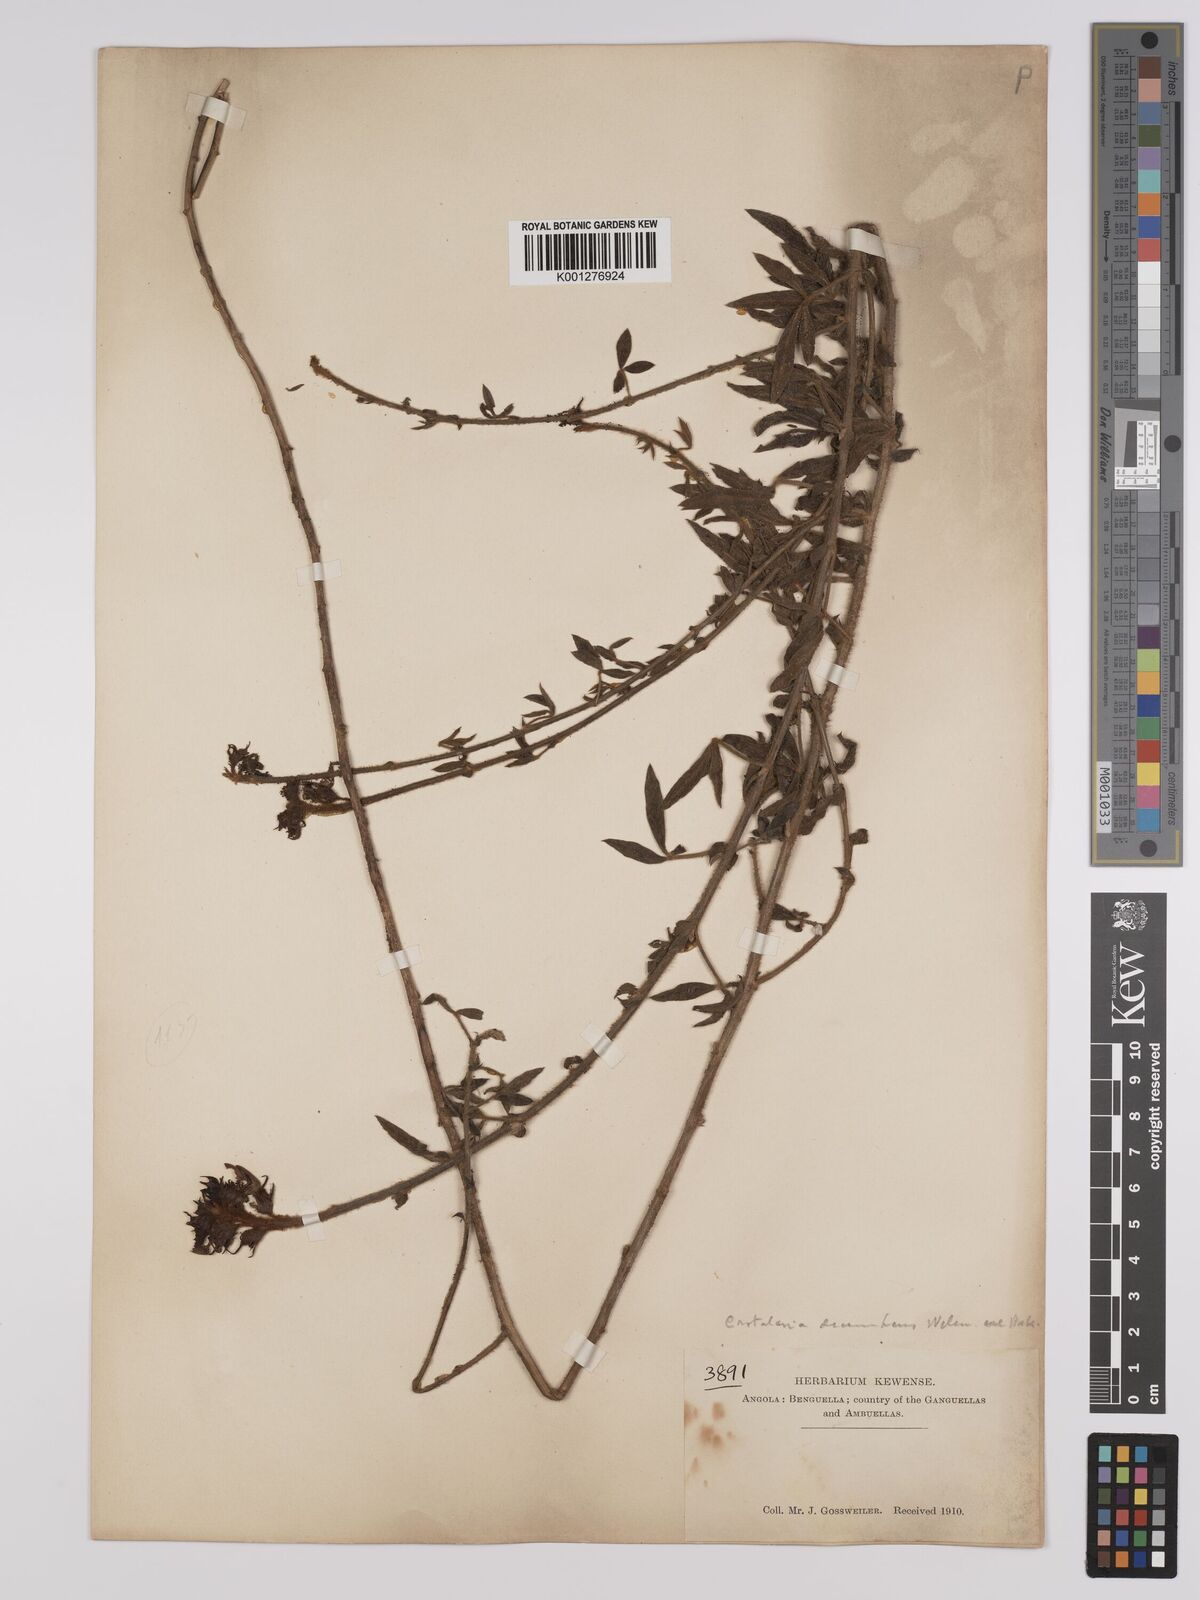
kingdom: Plantae
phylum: Tracheophyta
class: Magnoliopsida
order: Fabales
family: Fabaceae
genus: Crotalaria
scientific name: Crotalaria recumbens
